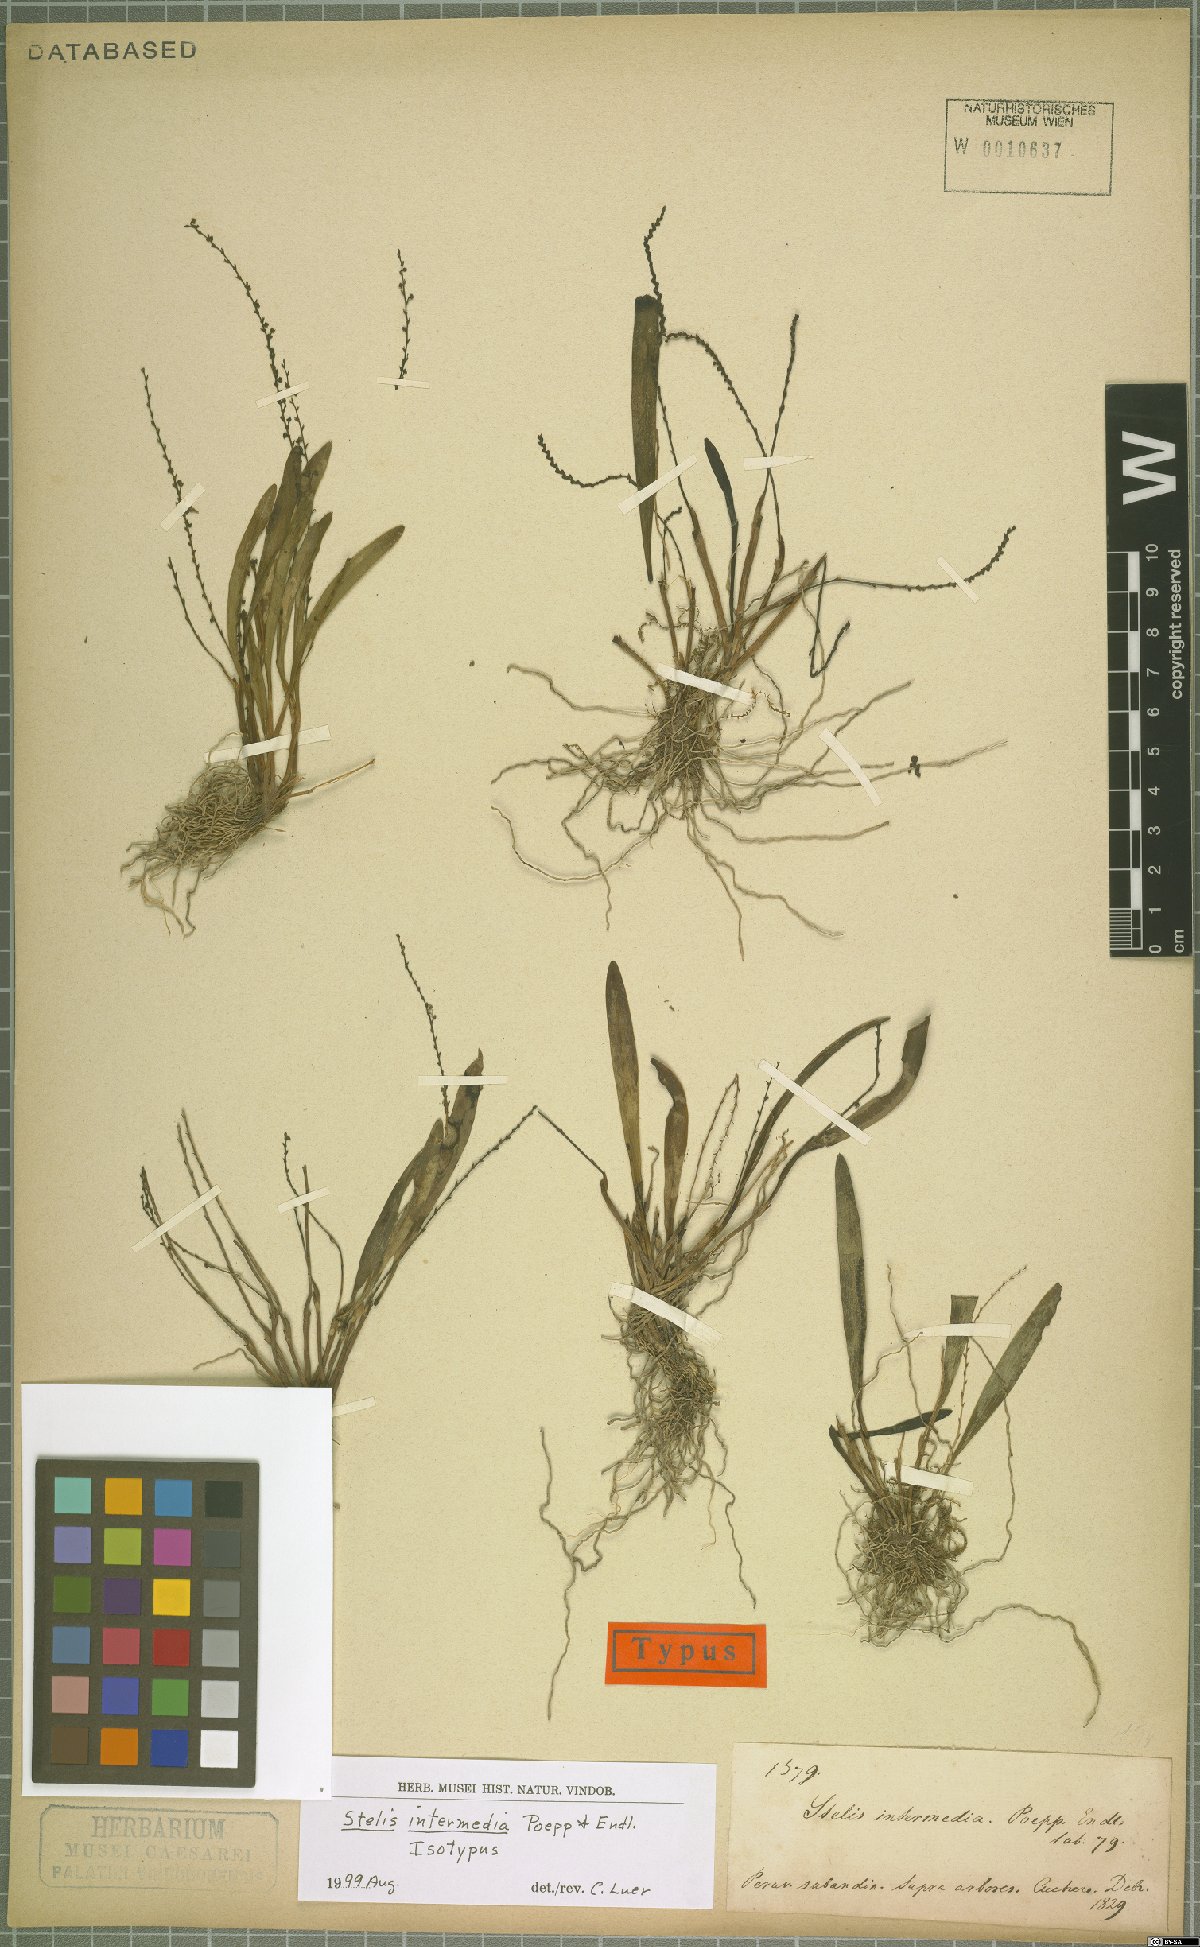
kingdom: Plantae
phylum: Tracheophyta
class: Liliopsida
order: Asparagales
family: Orchidaceae
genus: Stelis
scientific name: Stelis intermedia
